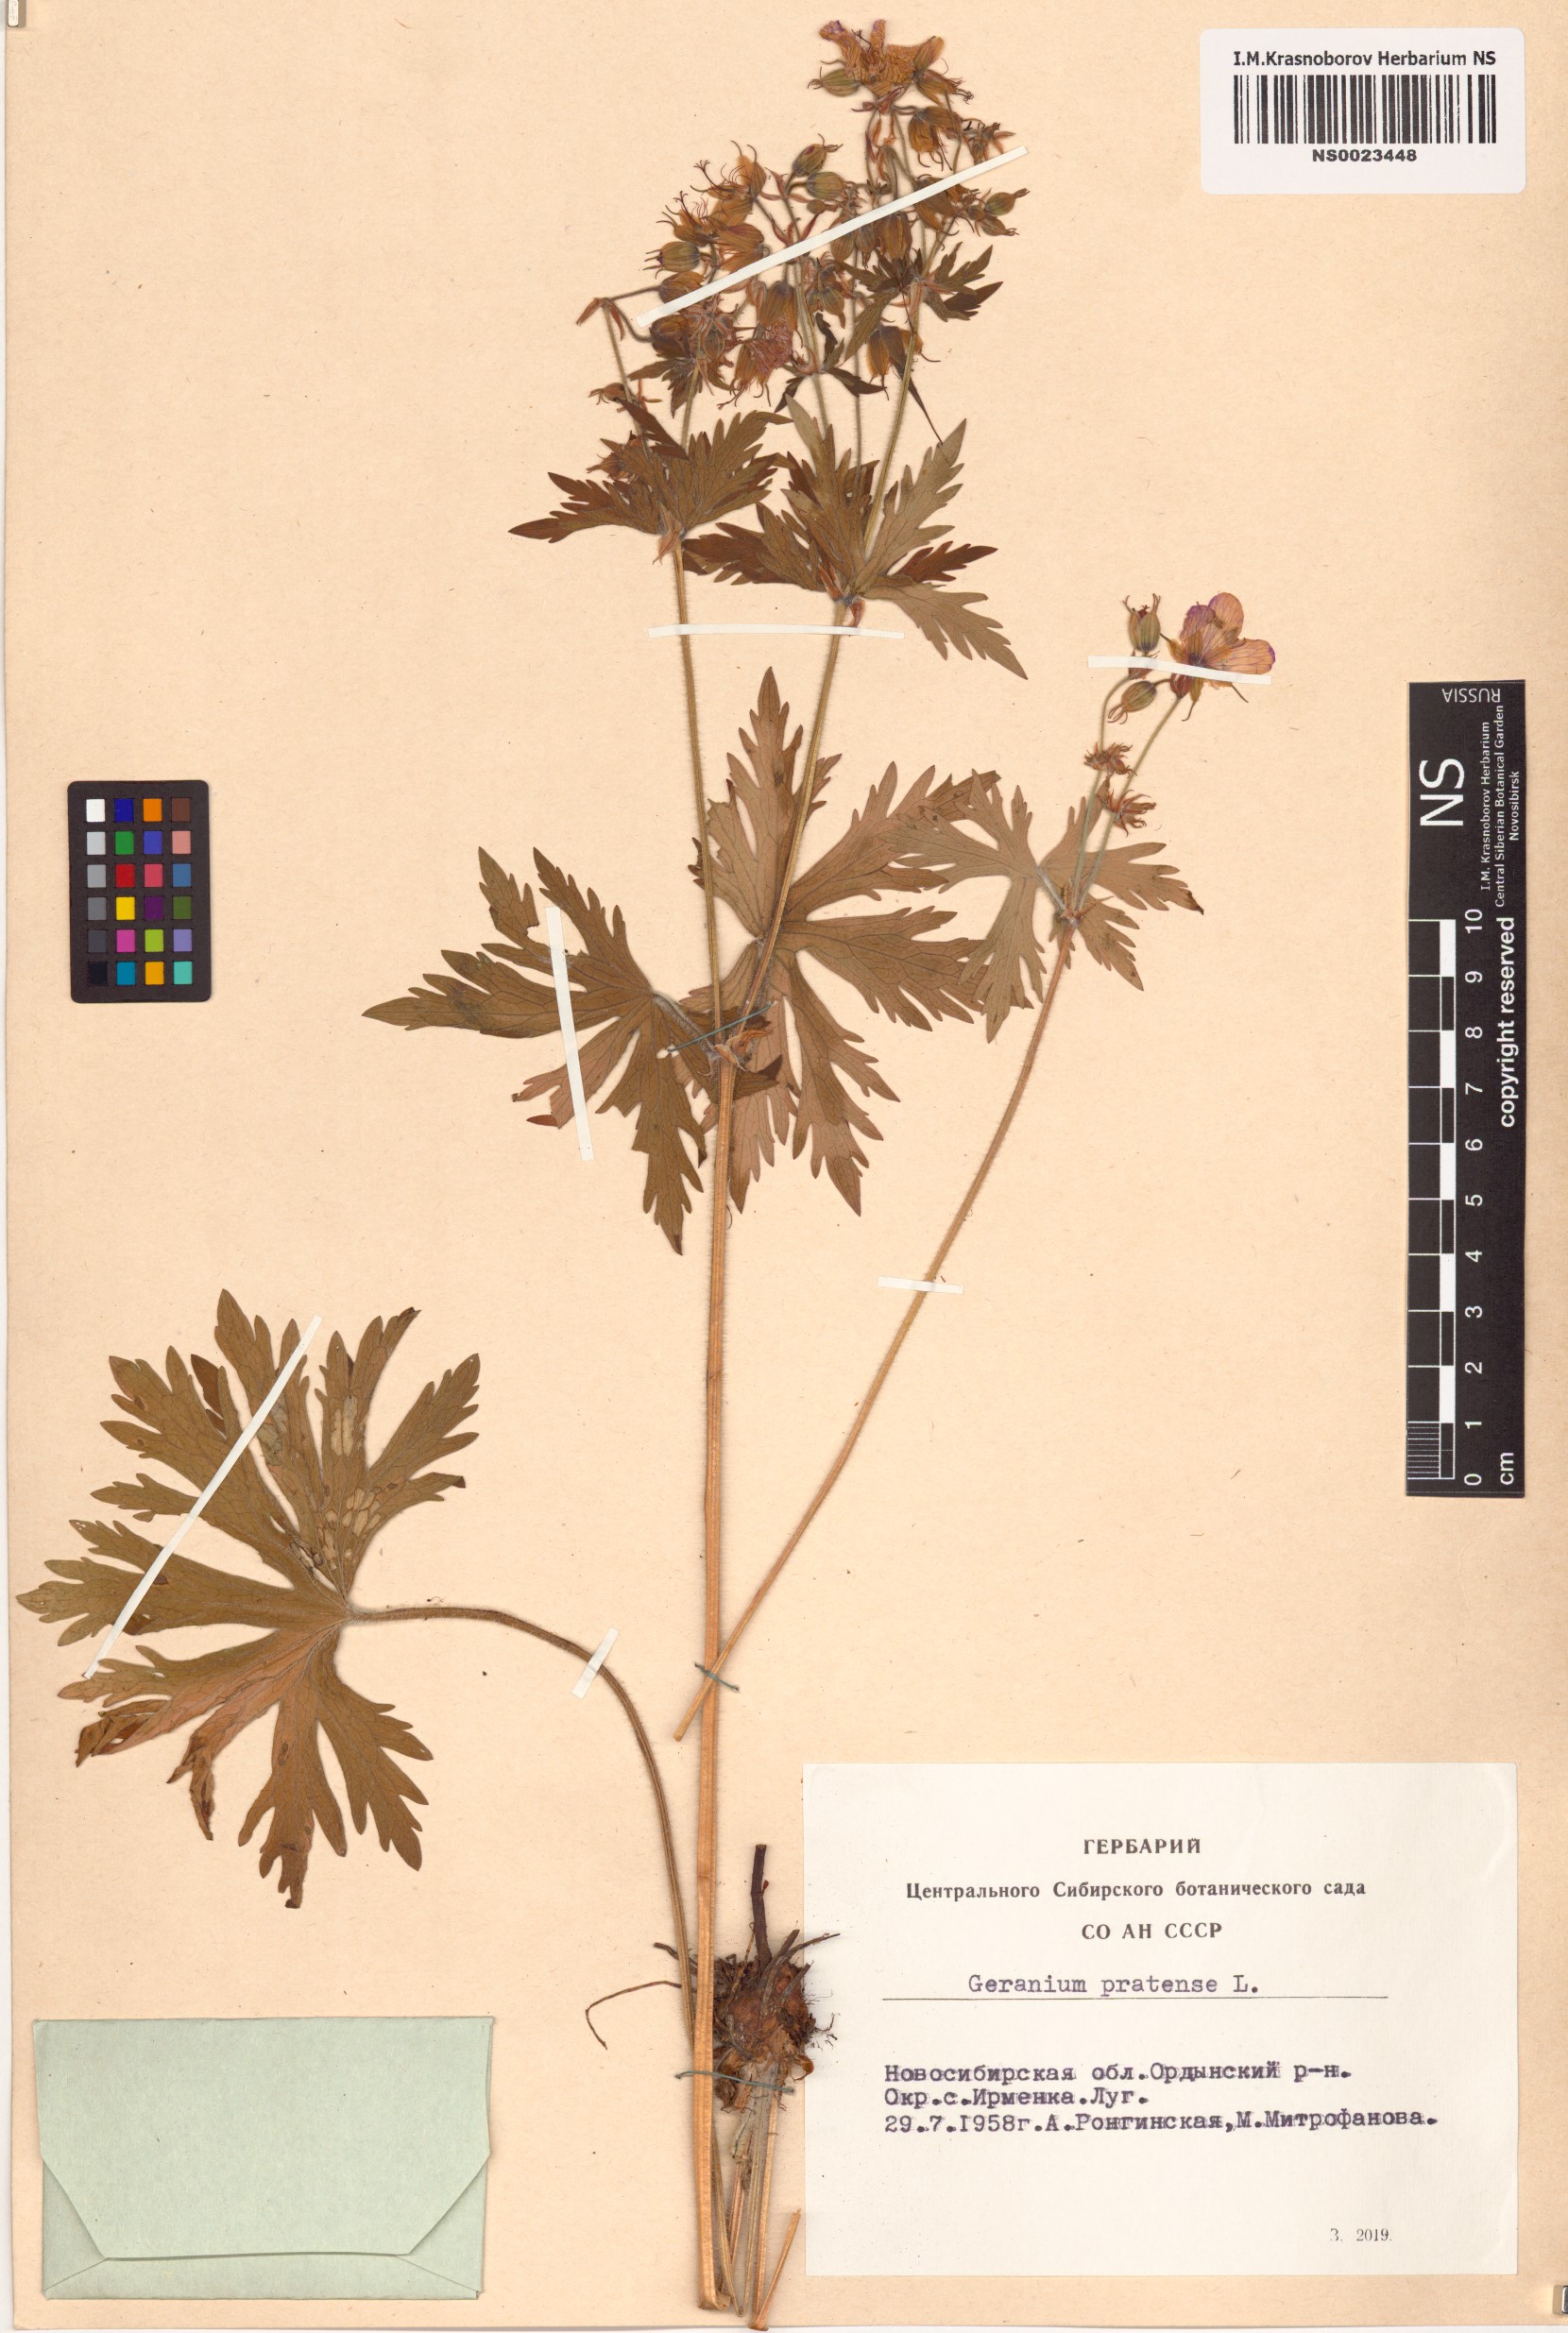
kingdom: Plantae
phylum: Tracheophyta
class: Magnoliopsida
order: Geraniales
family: Geraniaceae
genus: Geranium
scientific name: Geranium pratense
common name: Meadow crane's-bill
